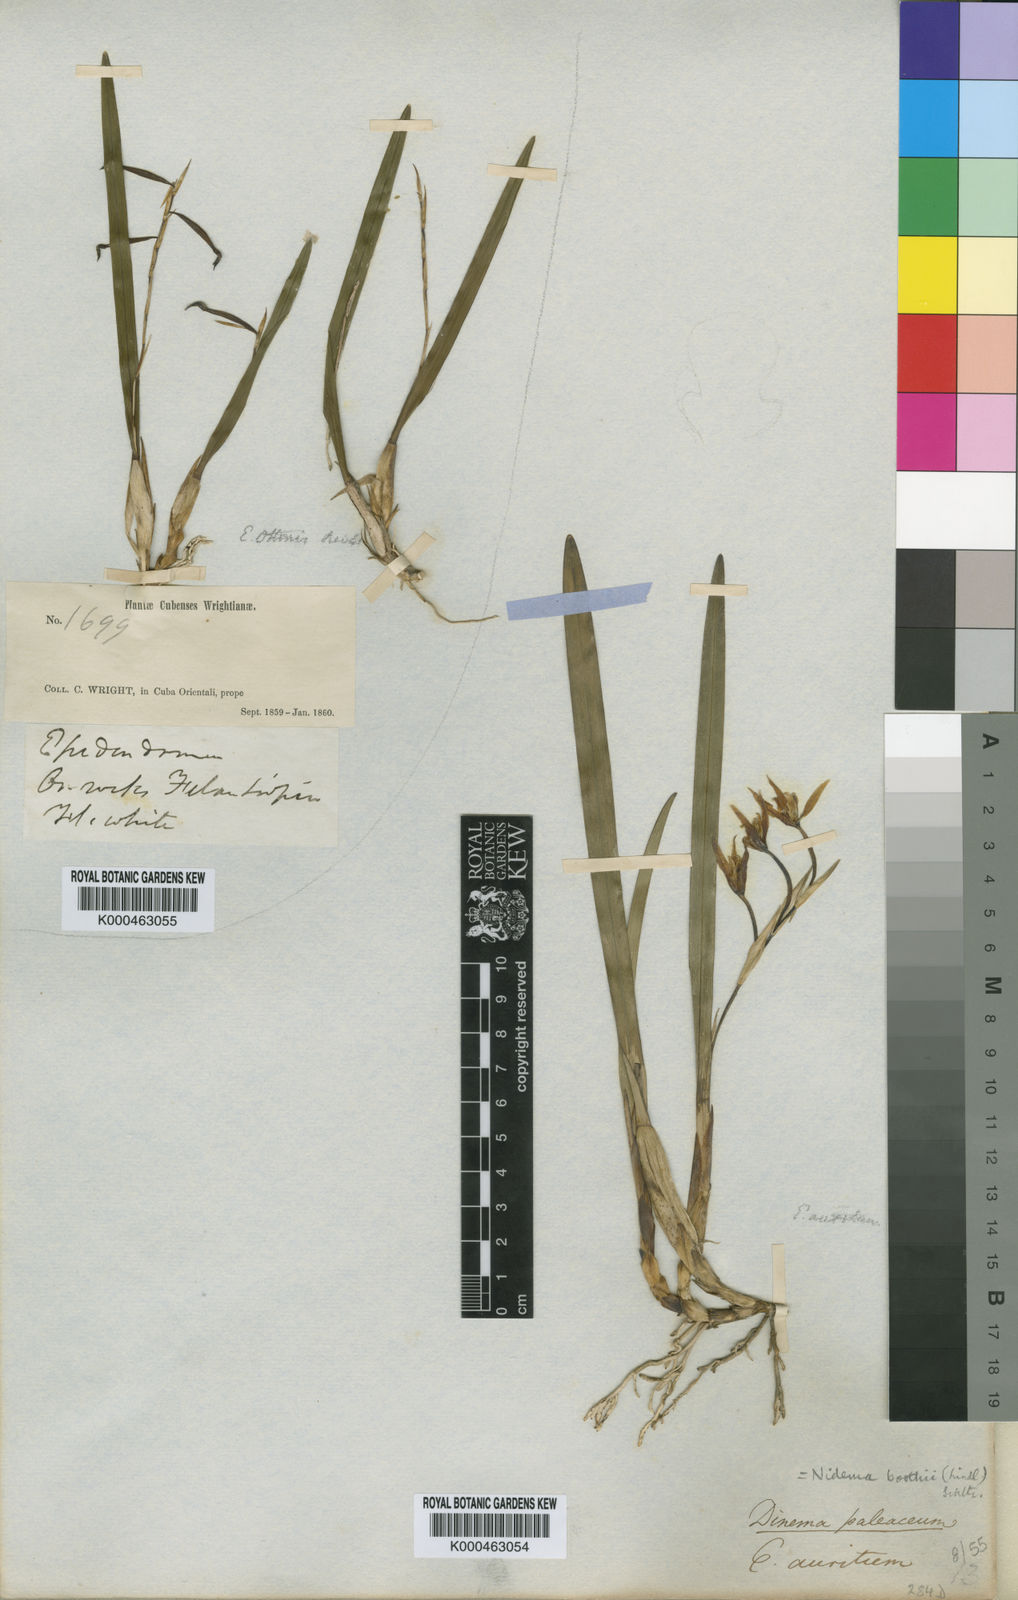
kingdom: Plantae
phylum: Tracheophyta
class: Liliopsida
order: Asparagales
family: Orchidaceae
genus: Nidema
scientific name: Nidema boothii
